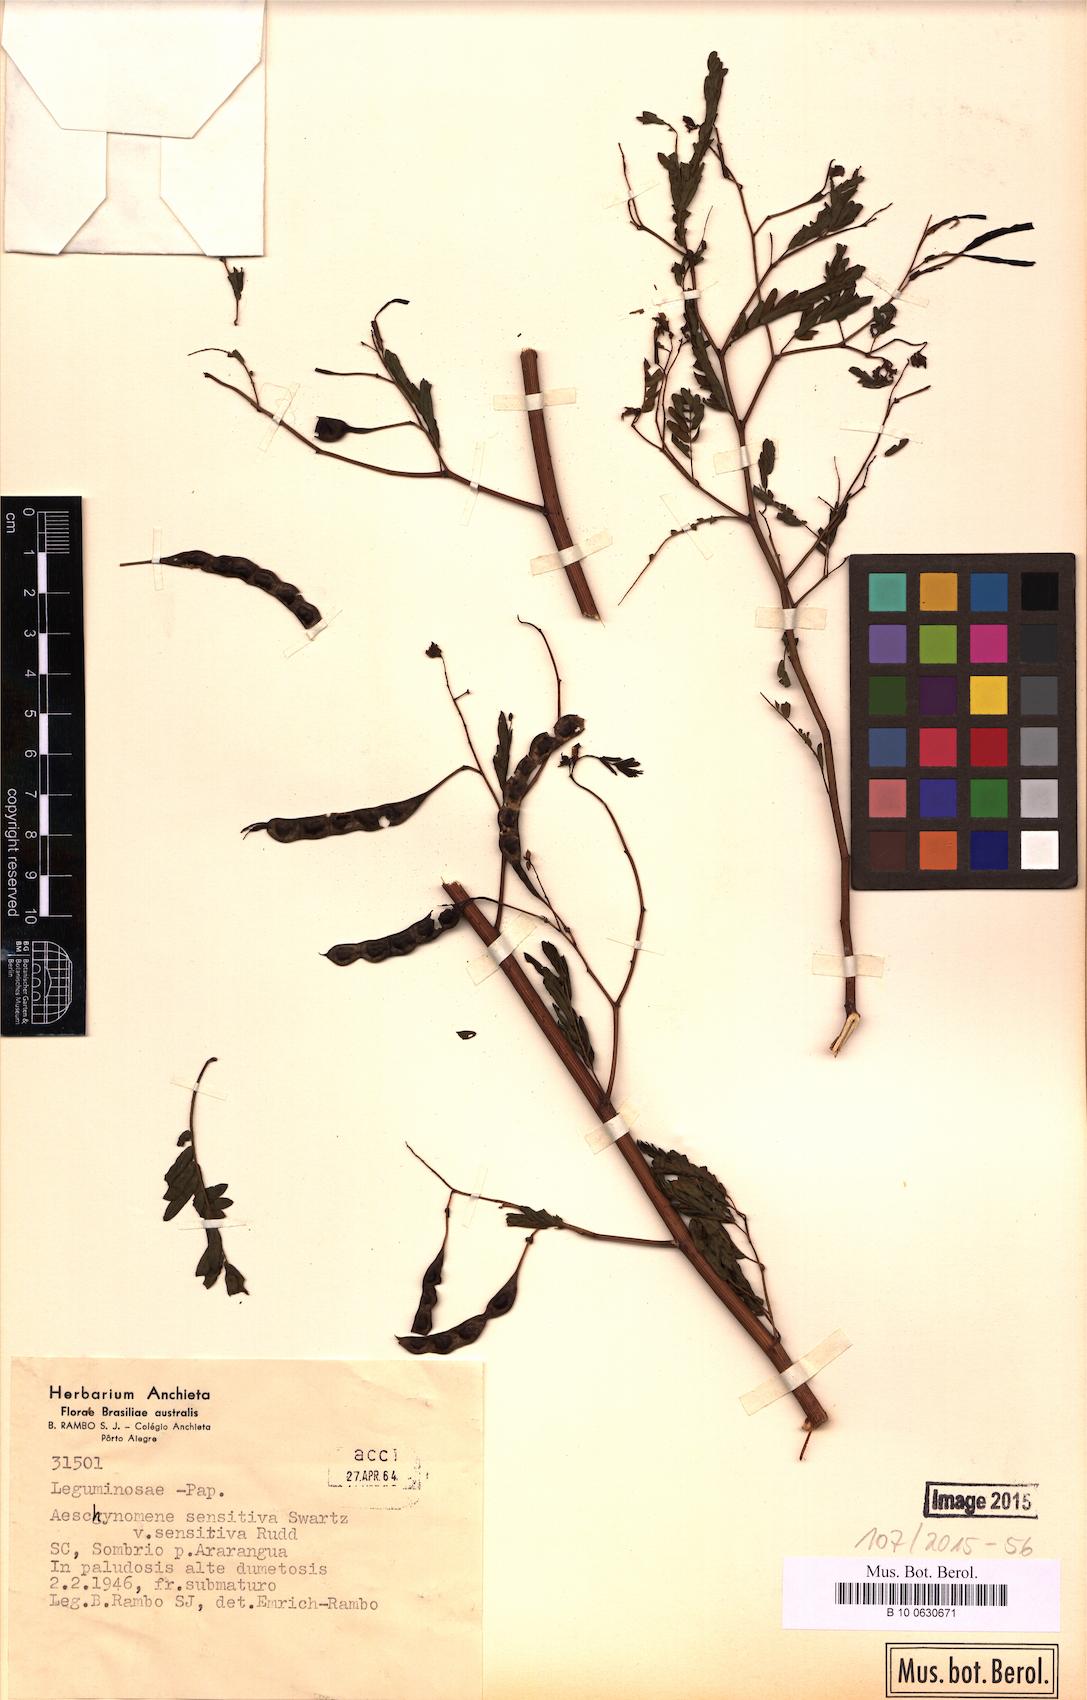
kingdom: Plantae
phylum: Tracheophyta
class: Magnoliopsida
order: Fabales
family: Fabaceae
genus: Aeschynomene
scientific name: Aeschynomene sensitiva
